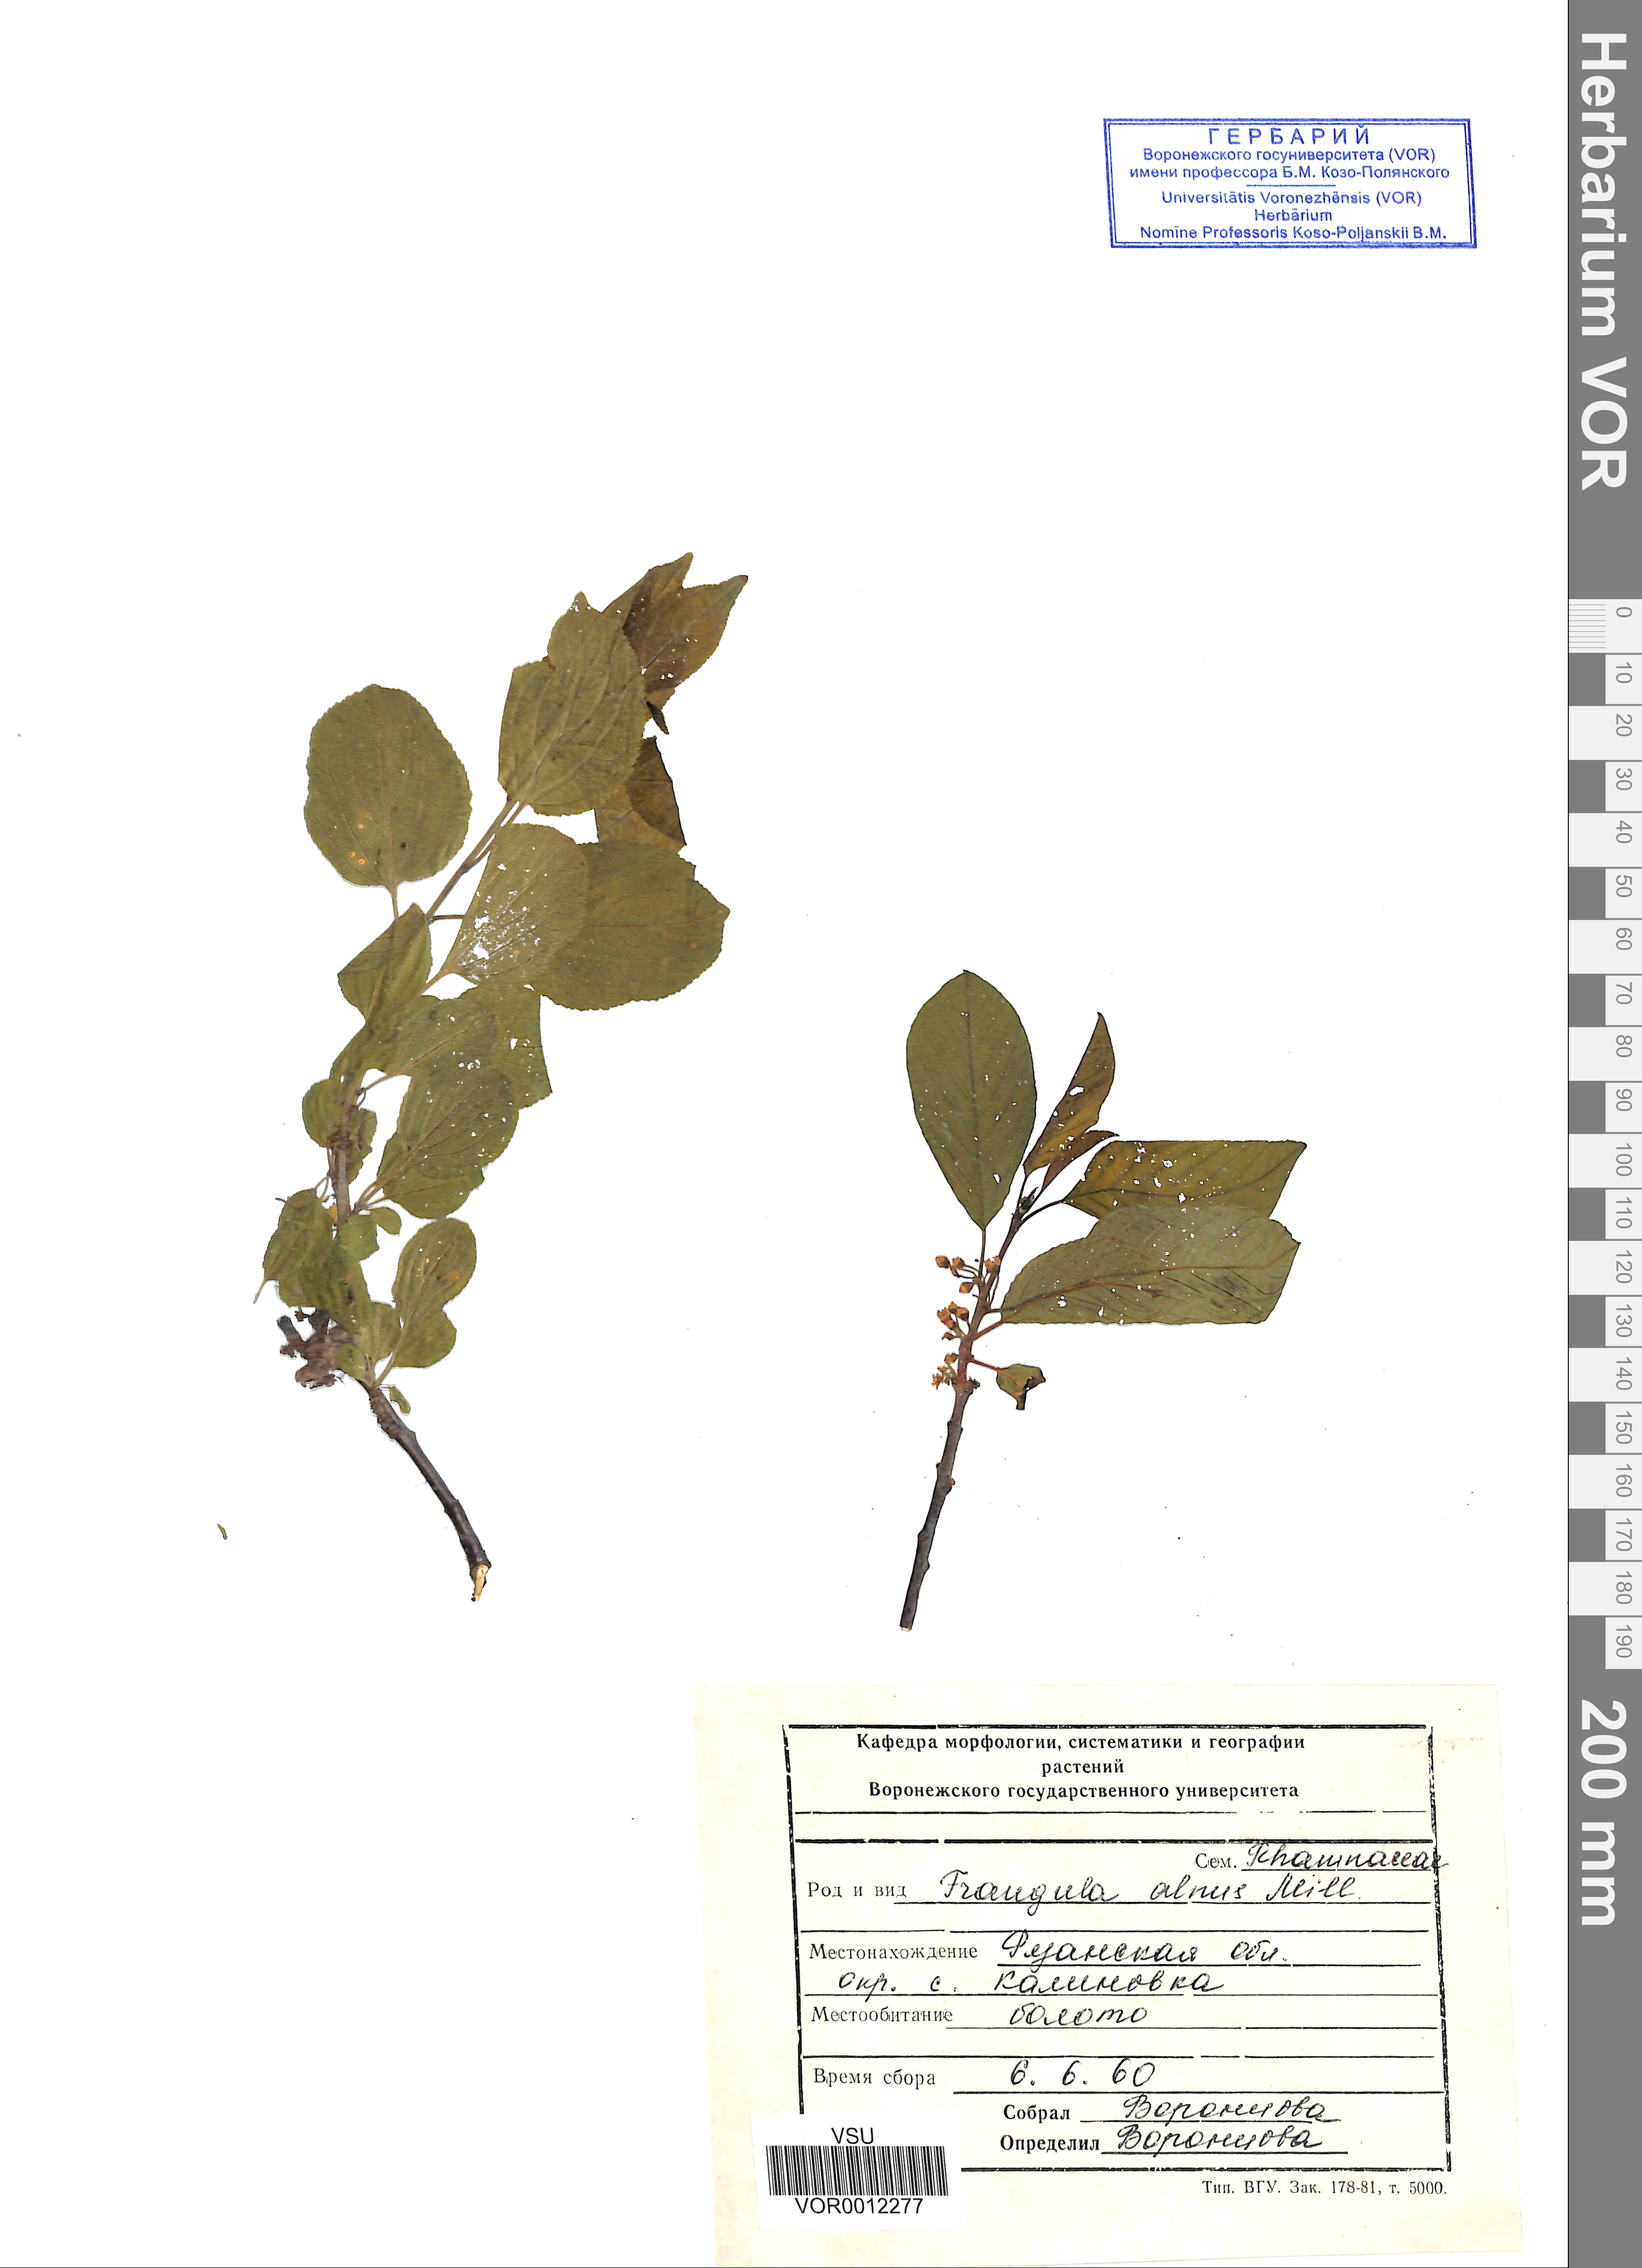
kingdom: Plantae
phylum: Tracheophyta
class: Magnoliopsida
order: Rosales
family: Rhamnaceae
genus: Frangula
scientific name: Frangula alnus
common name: Alder buckthorn
